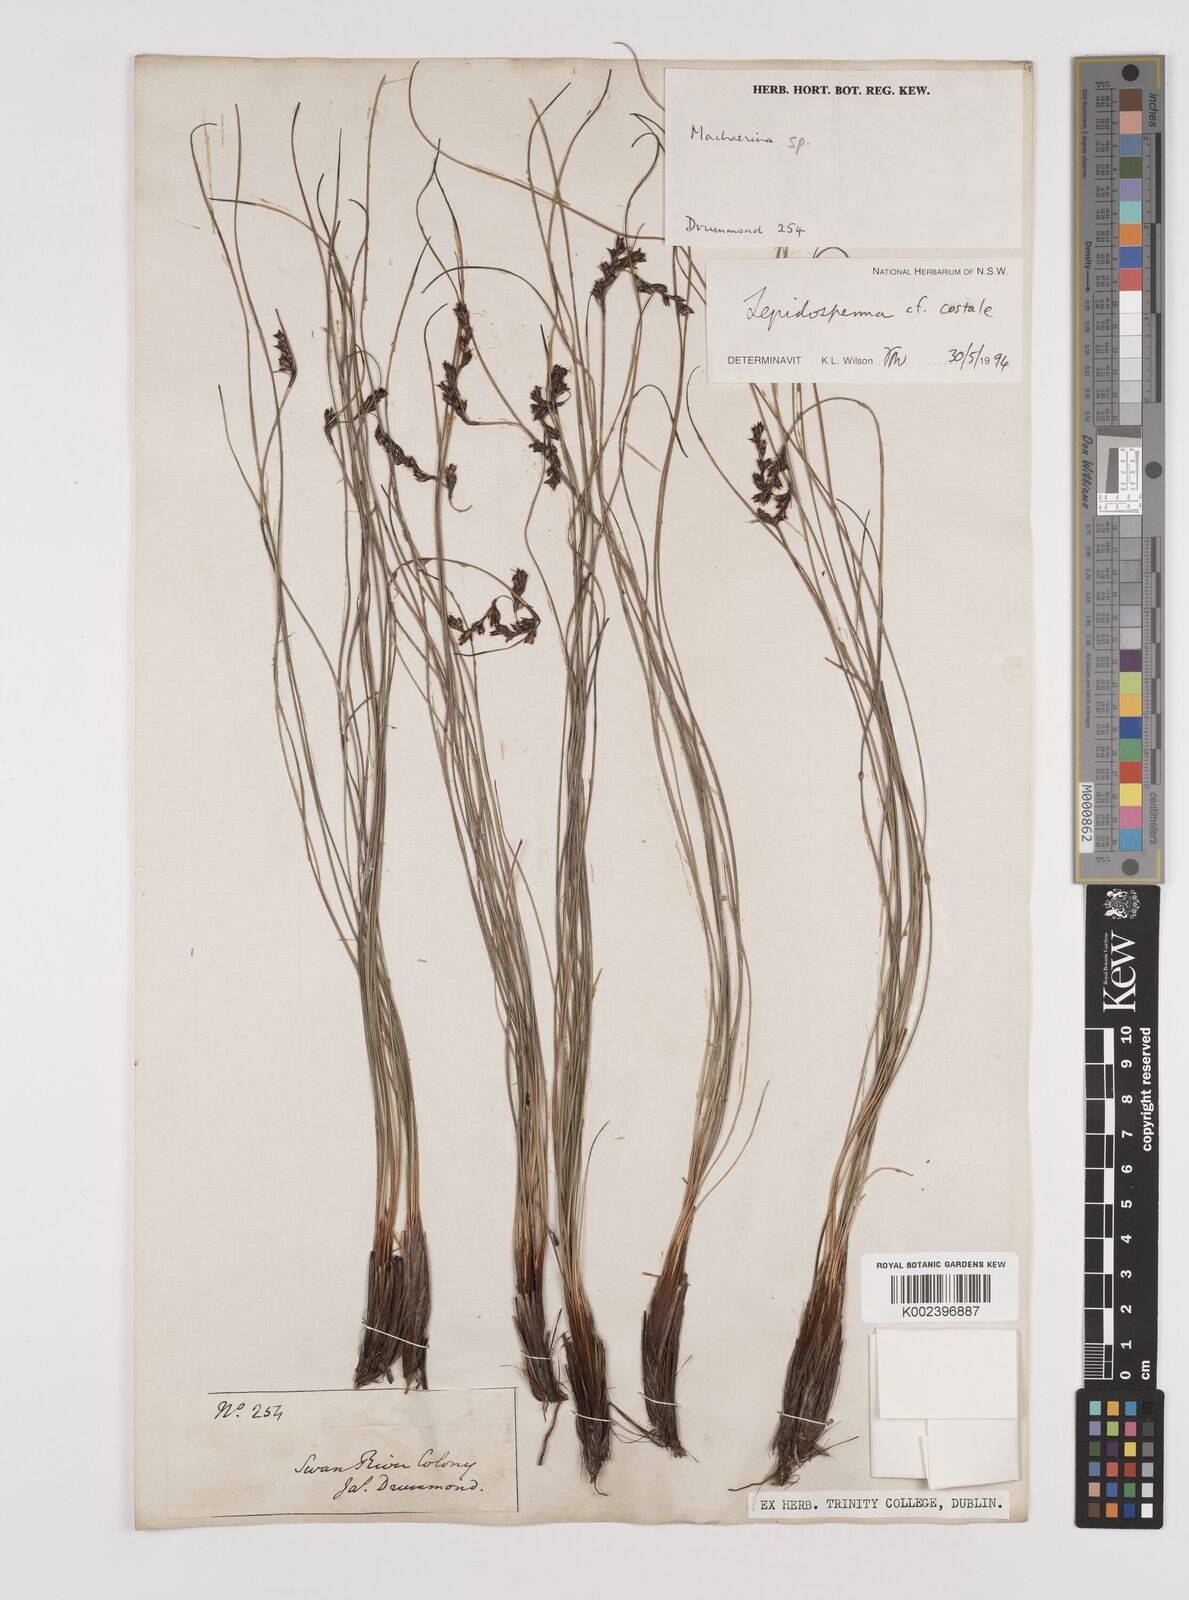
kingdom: Plantae
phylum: Tracheophyta
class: Liliopsida
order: Poales
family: Cyperaceae
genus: Lepidosperma
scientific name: Lepidosperma costale
